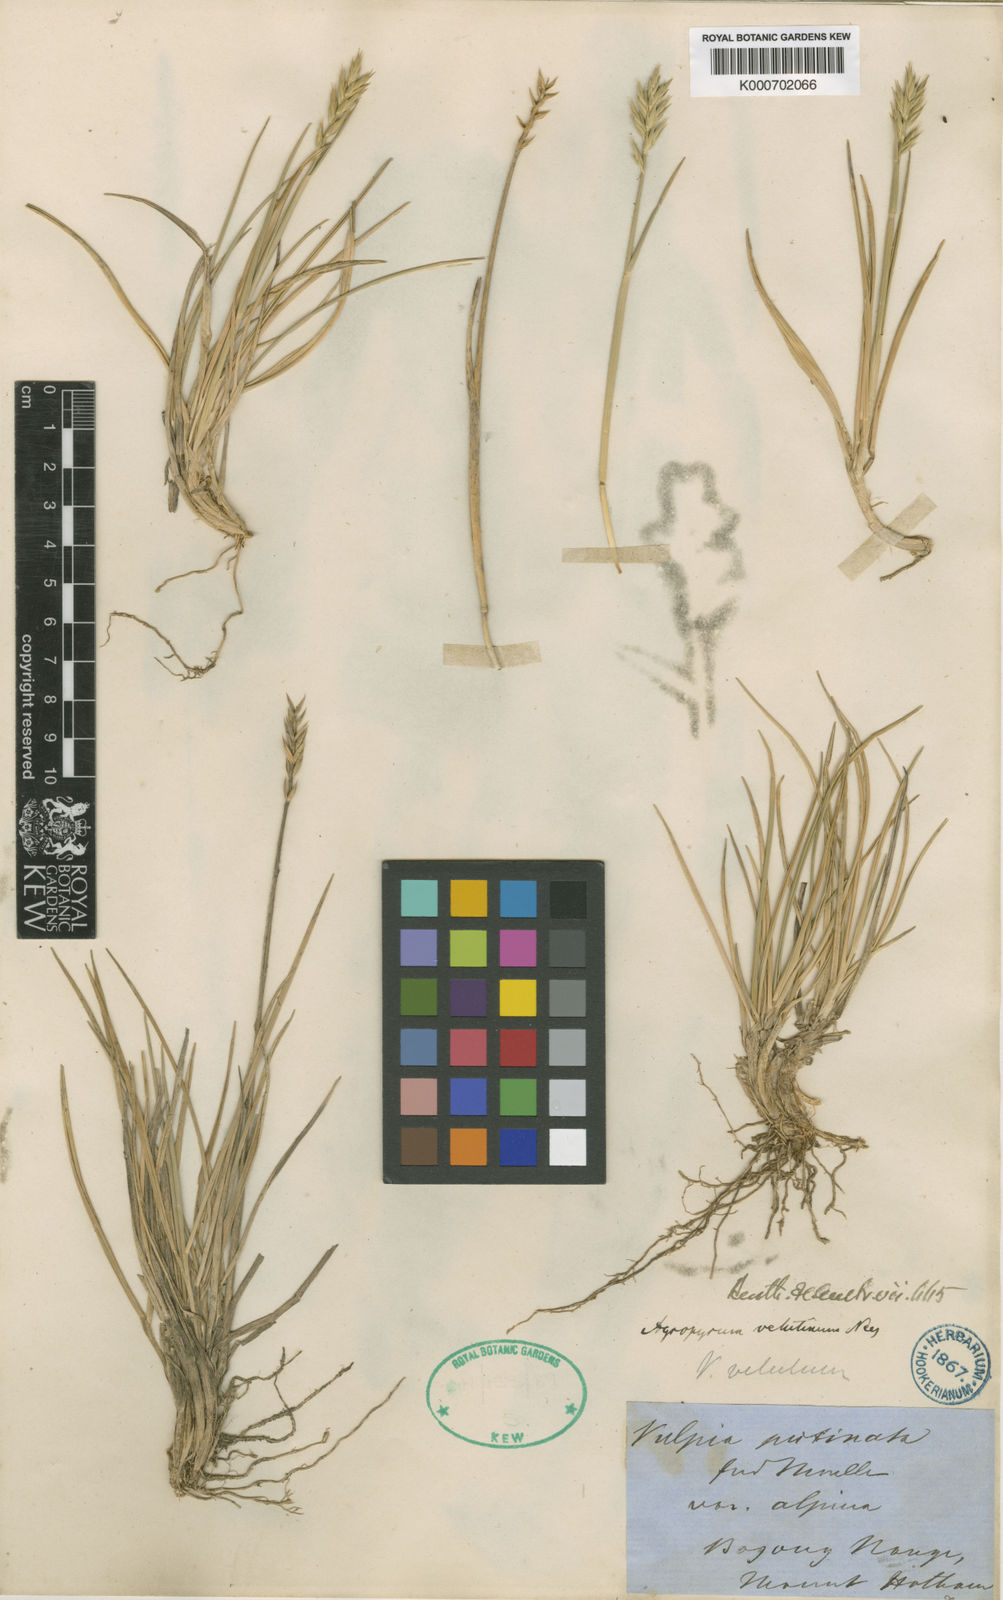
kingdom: Plantae
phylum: Tracheophyta
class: Liliopsida
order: Poales
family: Poaceae
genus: Australopyrum
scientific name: Australopyrum velutinum
